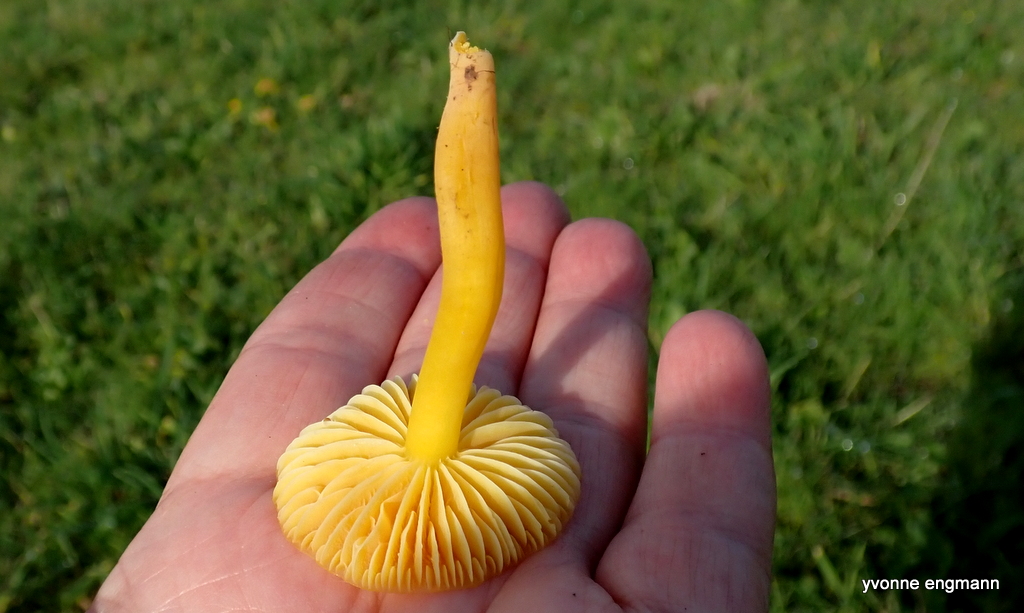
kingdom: Fungi
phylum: Basidiomycota
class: Agaricomycetes
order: Agaricales
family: Hygrophoraceae
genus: Hygrocybe
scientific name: Hygrocybe ceracea
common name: voksgul vokshat
